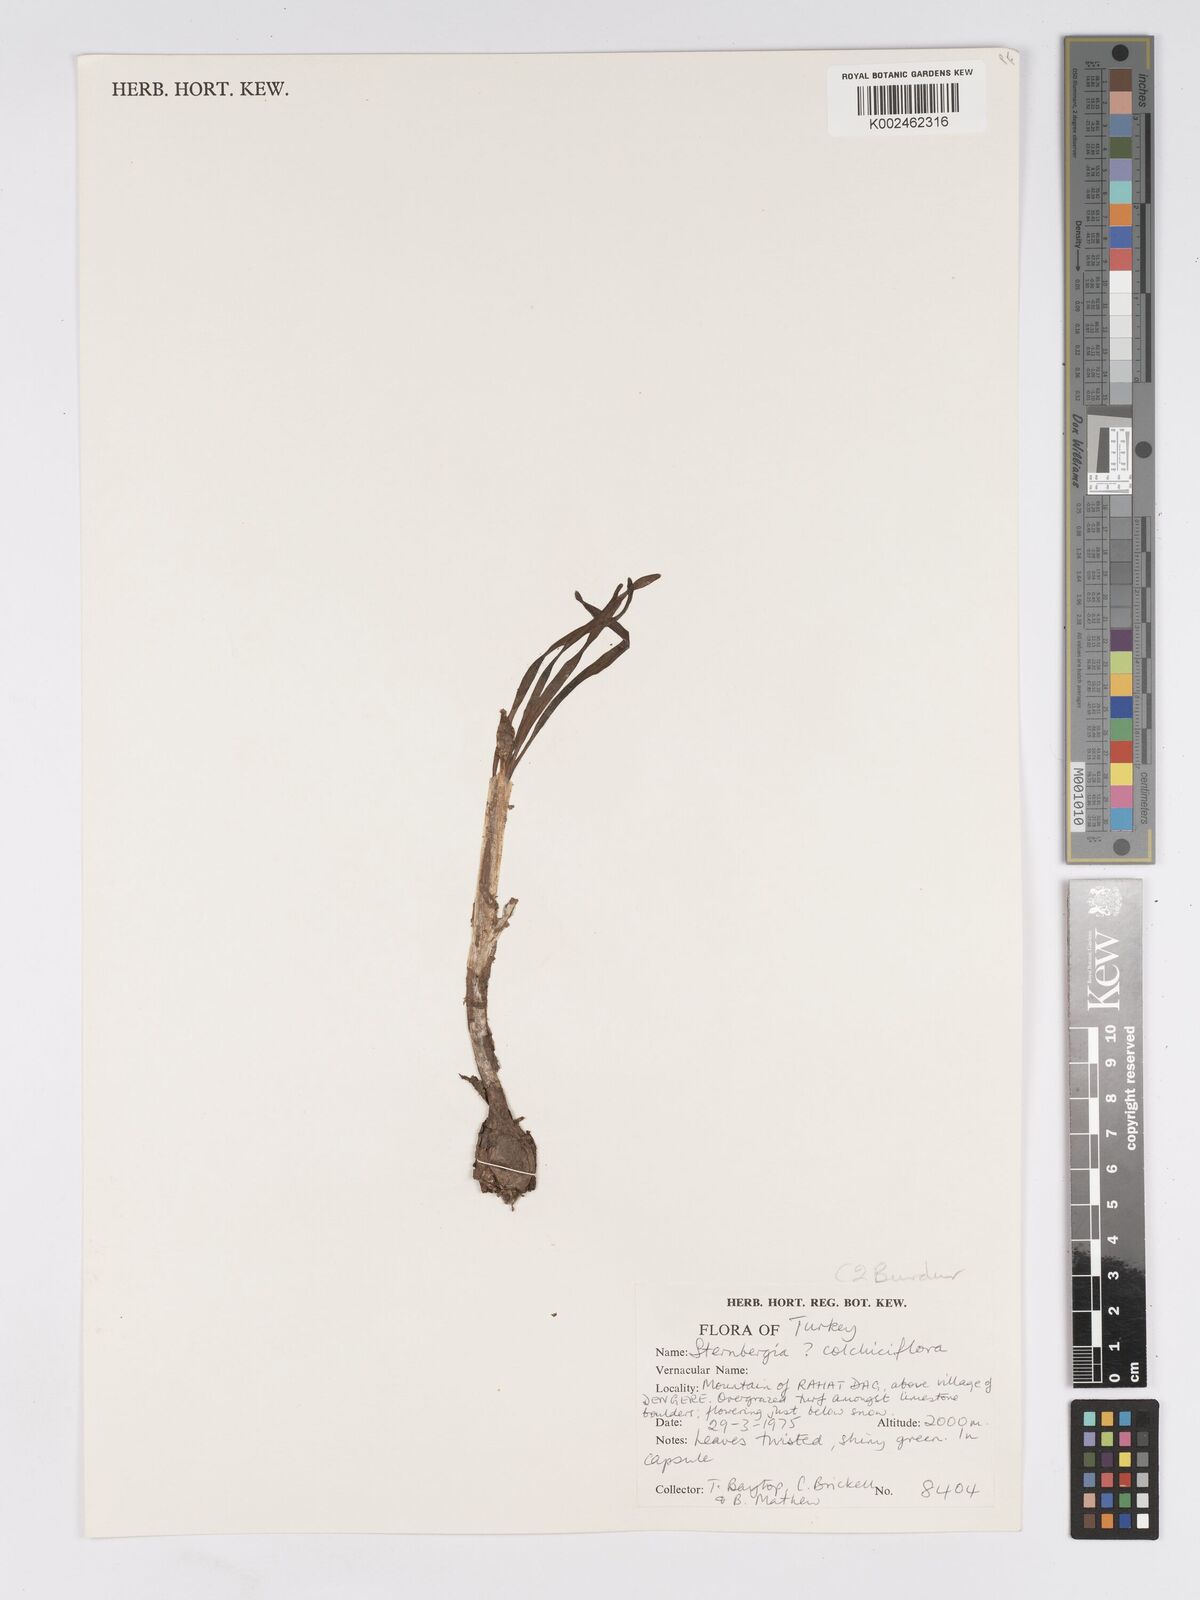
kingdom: Plantae
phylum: Tracheophyta
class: Liliopsida
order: Asparagales
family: Amaryllidaceae
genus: Sternbergia
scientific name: Sternbergia colchiciflora
